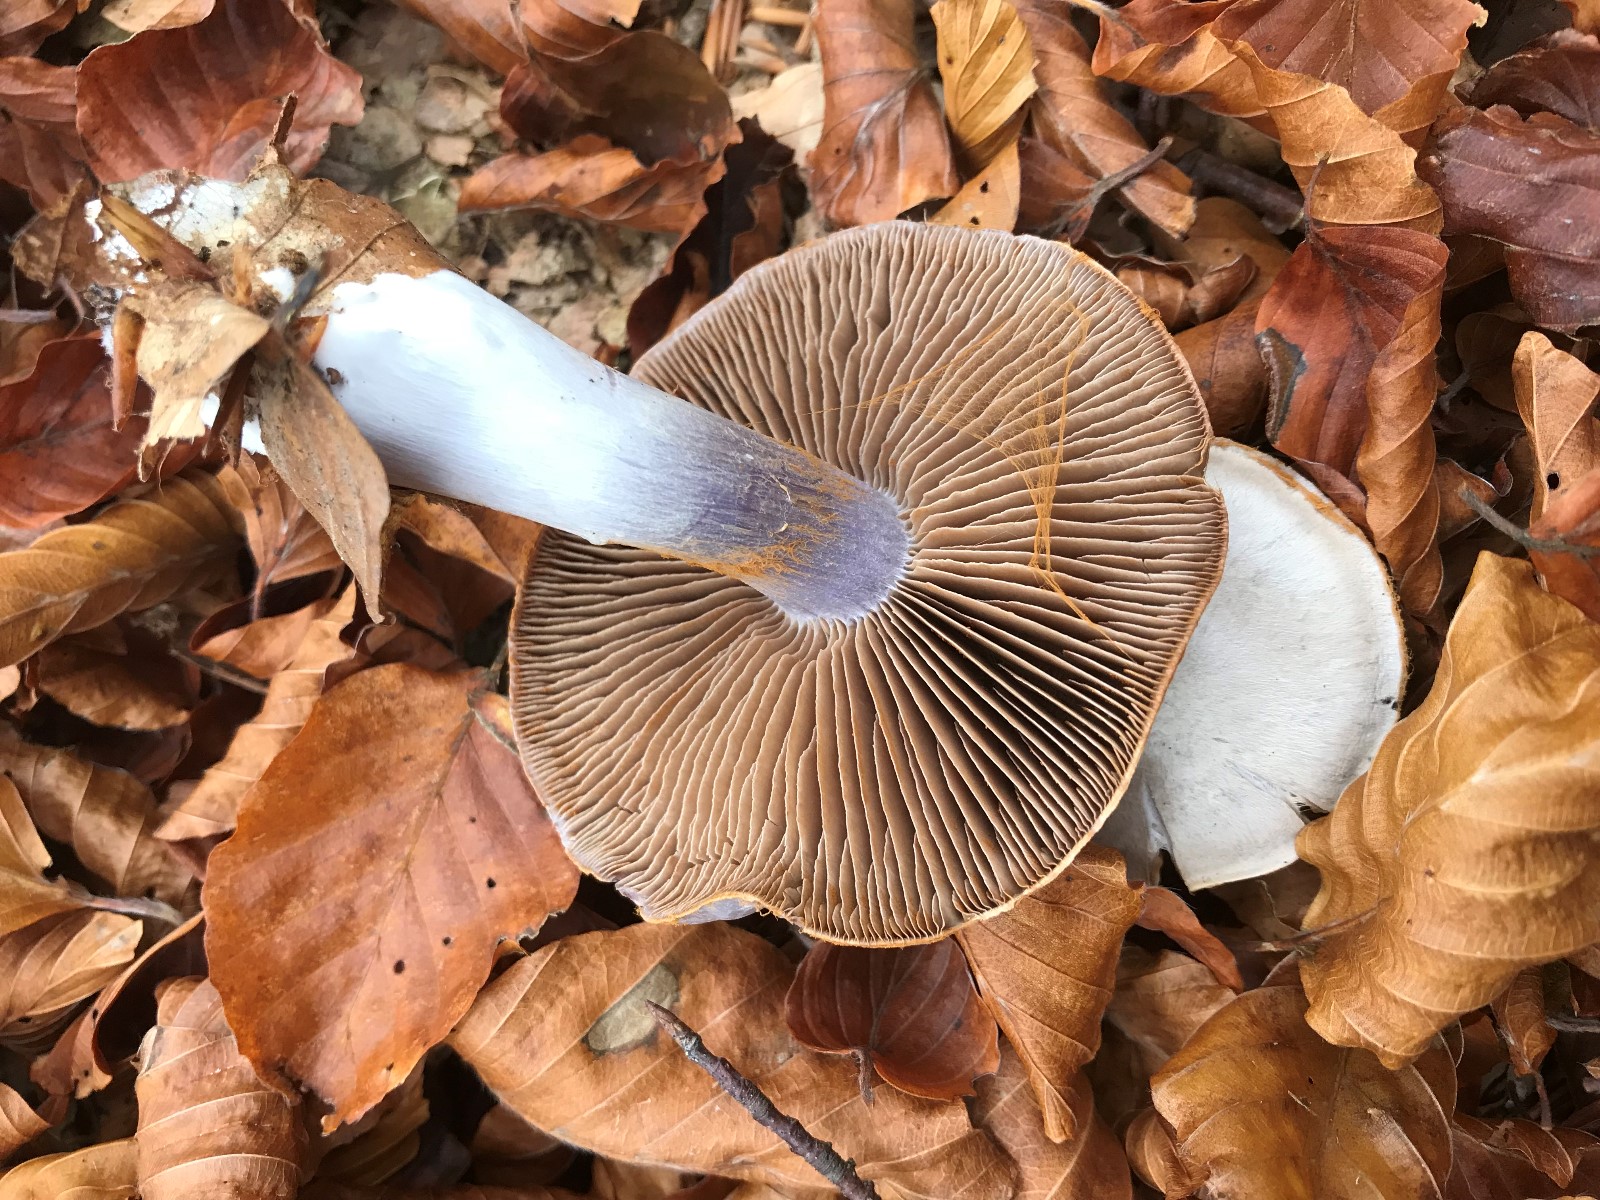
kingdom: Fungi
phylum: Basidiomycota
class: Agaricomycetes
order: Agaricales
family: Cortinariaceae
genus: Cortinarius
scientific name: Cortinarius alboviolaceus
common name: lysviolet slørhat
